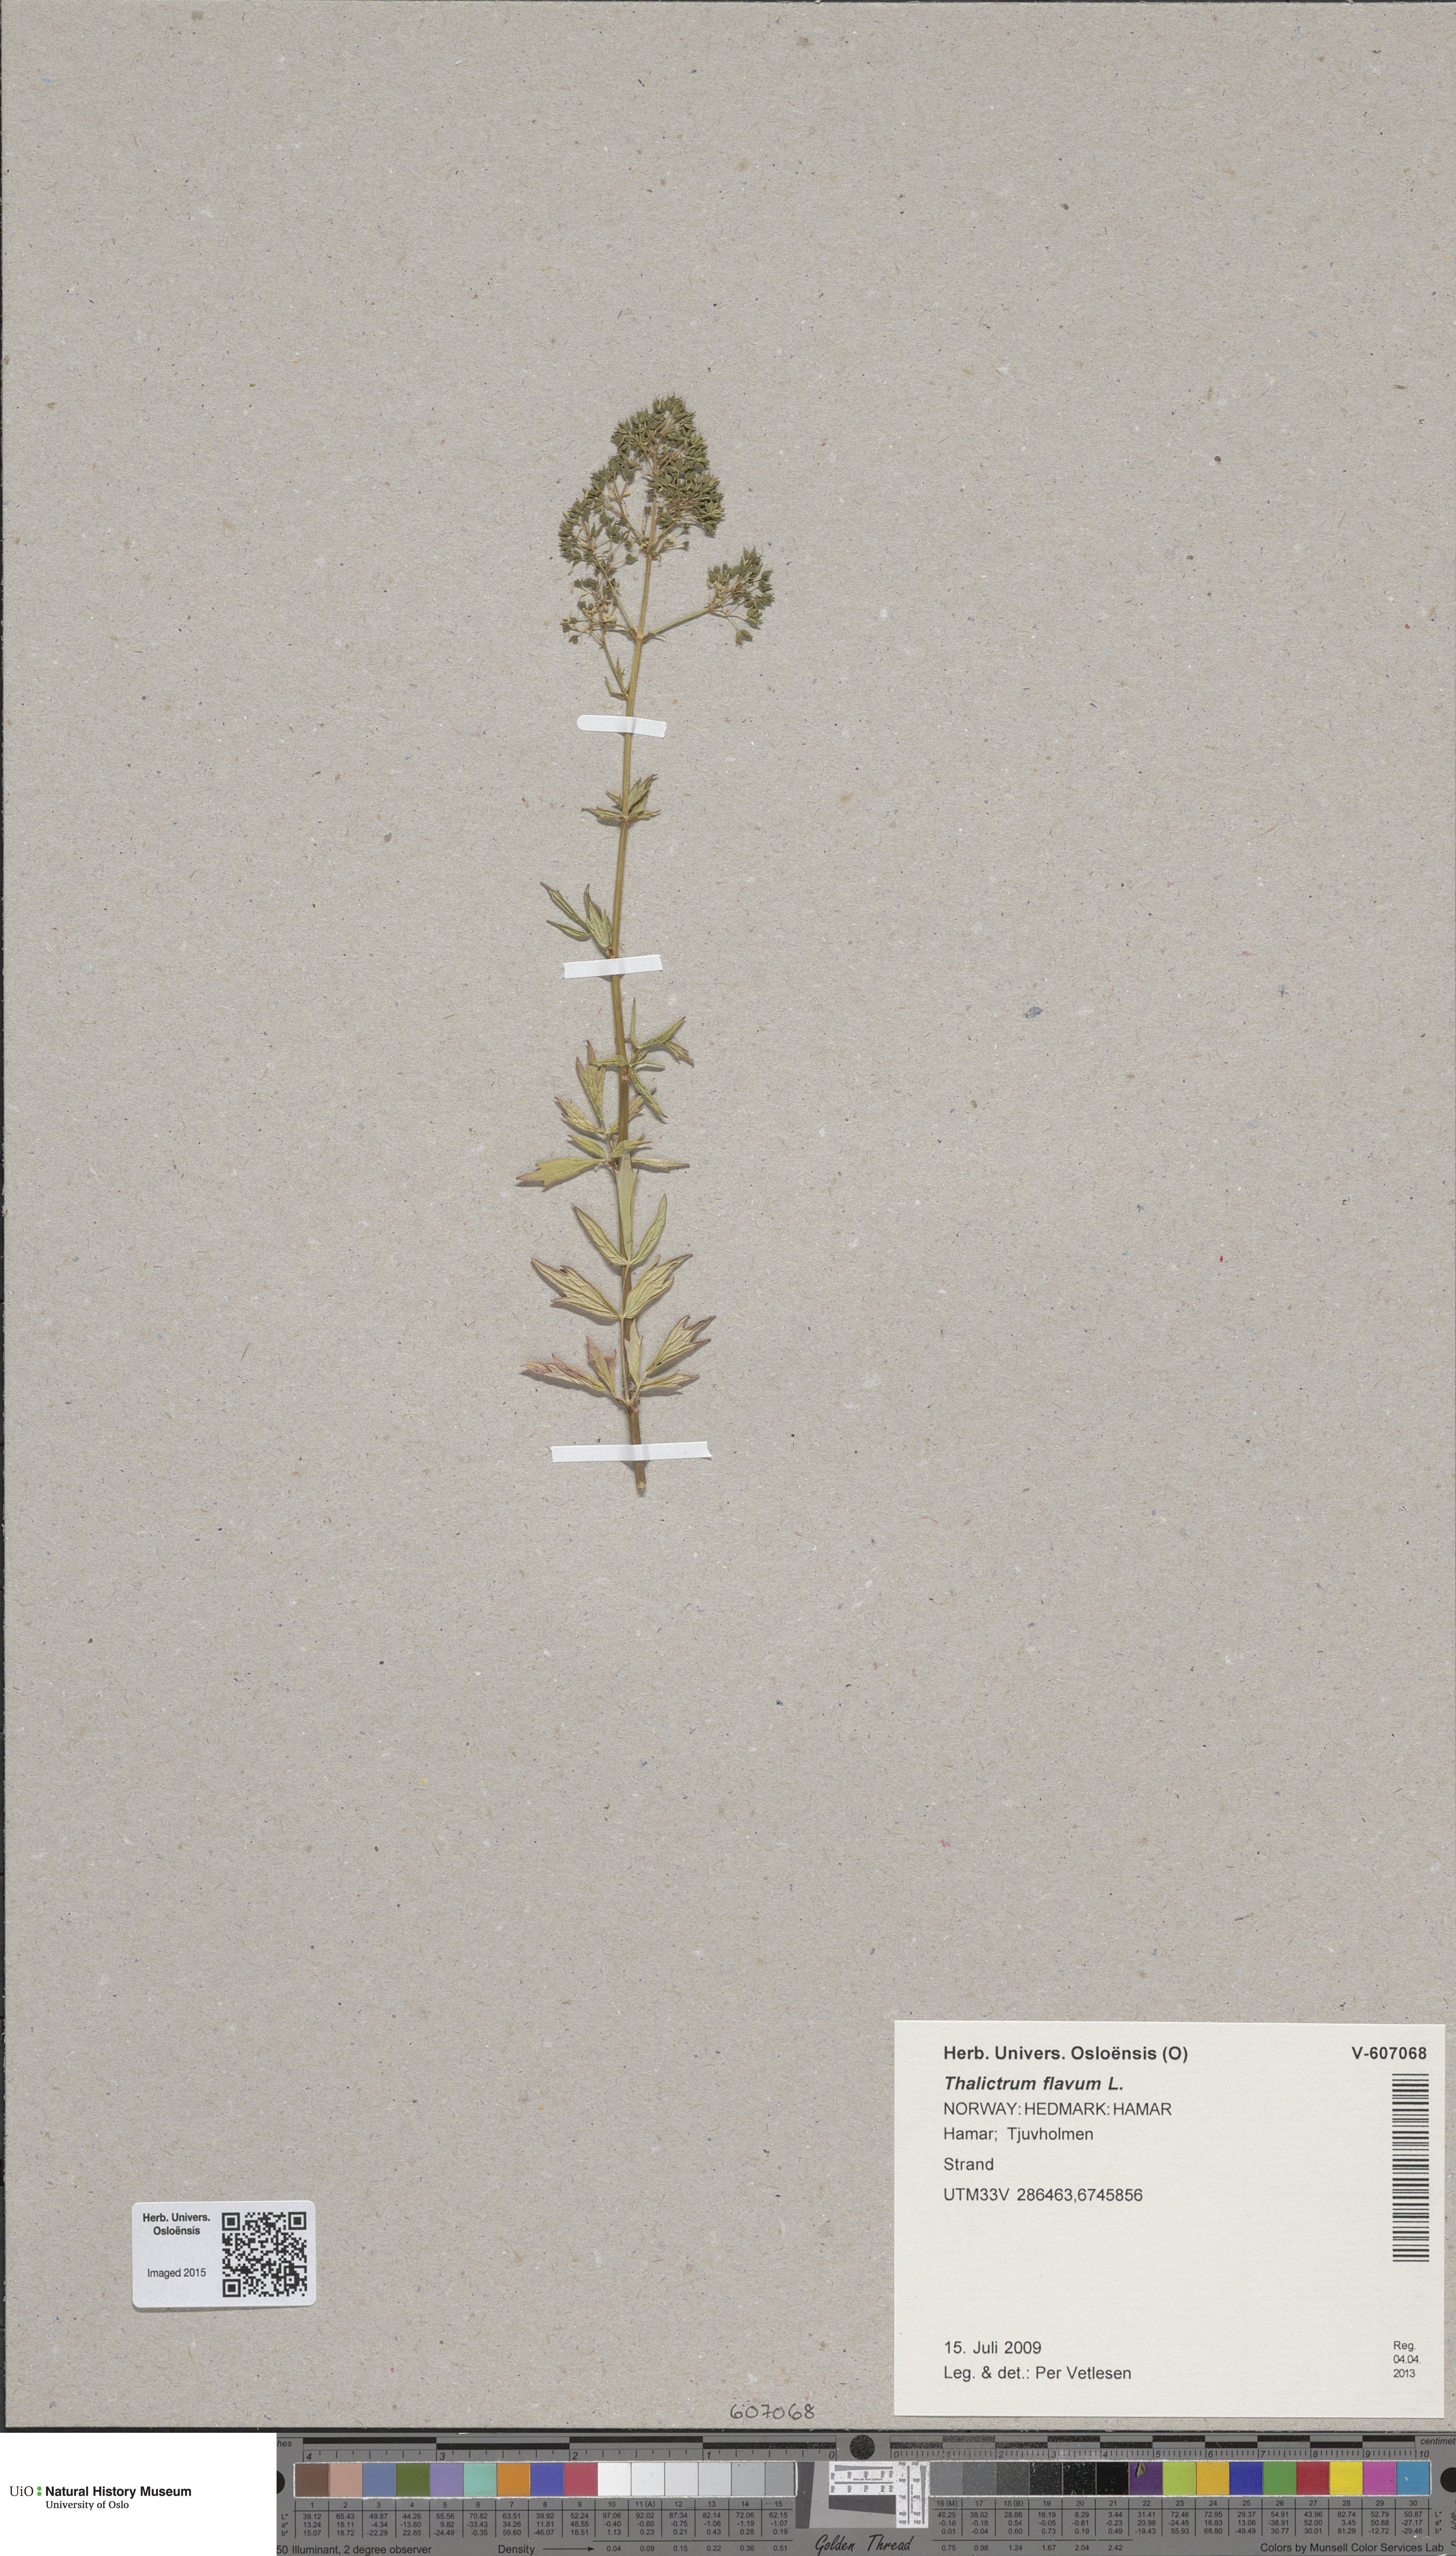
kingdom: Plantae
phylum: Tracheophyta
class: Magnoliopsida
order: Ranunculales
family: Ranunculaceae
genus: Thalictrum
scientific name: Thalictrum simplex
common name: Small meadow-rue
